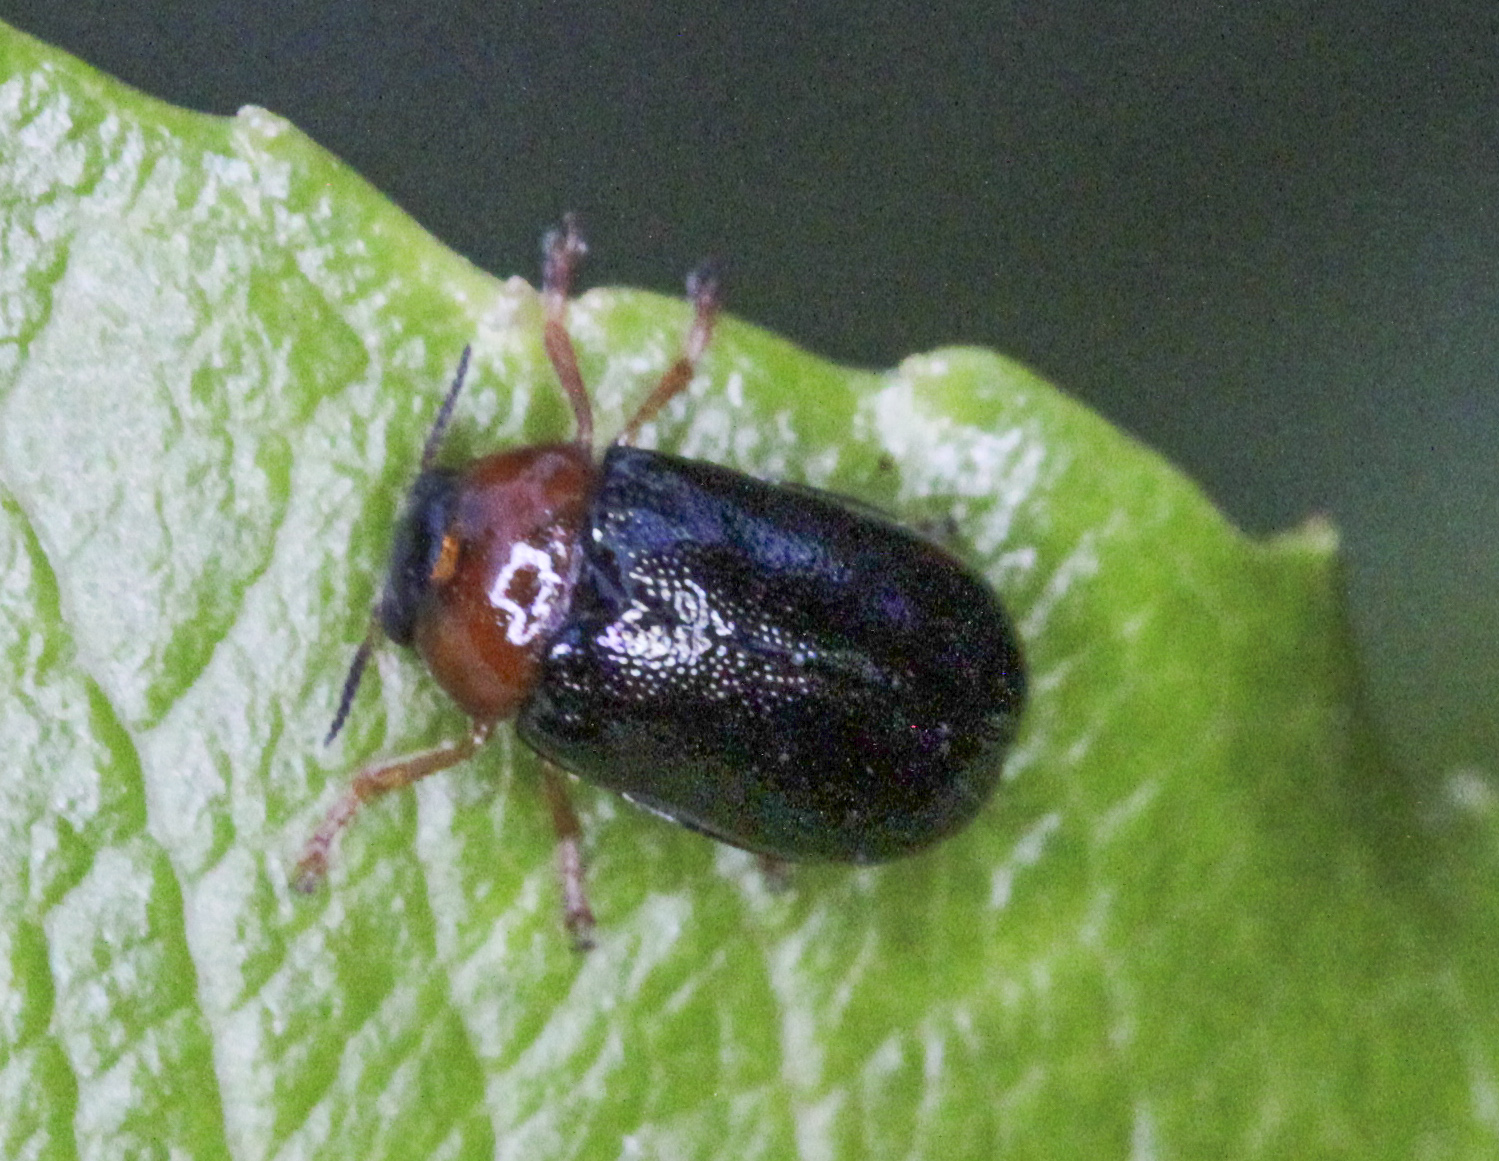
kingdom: Animalia
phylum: Arthropoda
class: Insecta
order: Coleoptera
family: Chrysomelidae
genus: Smaragdina
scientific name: Smaragdina flavicollis
